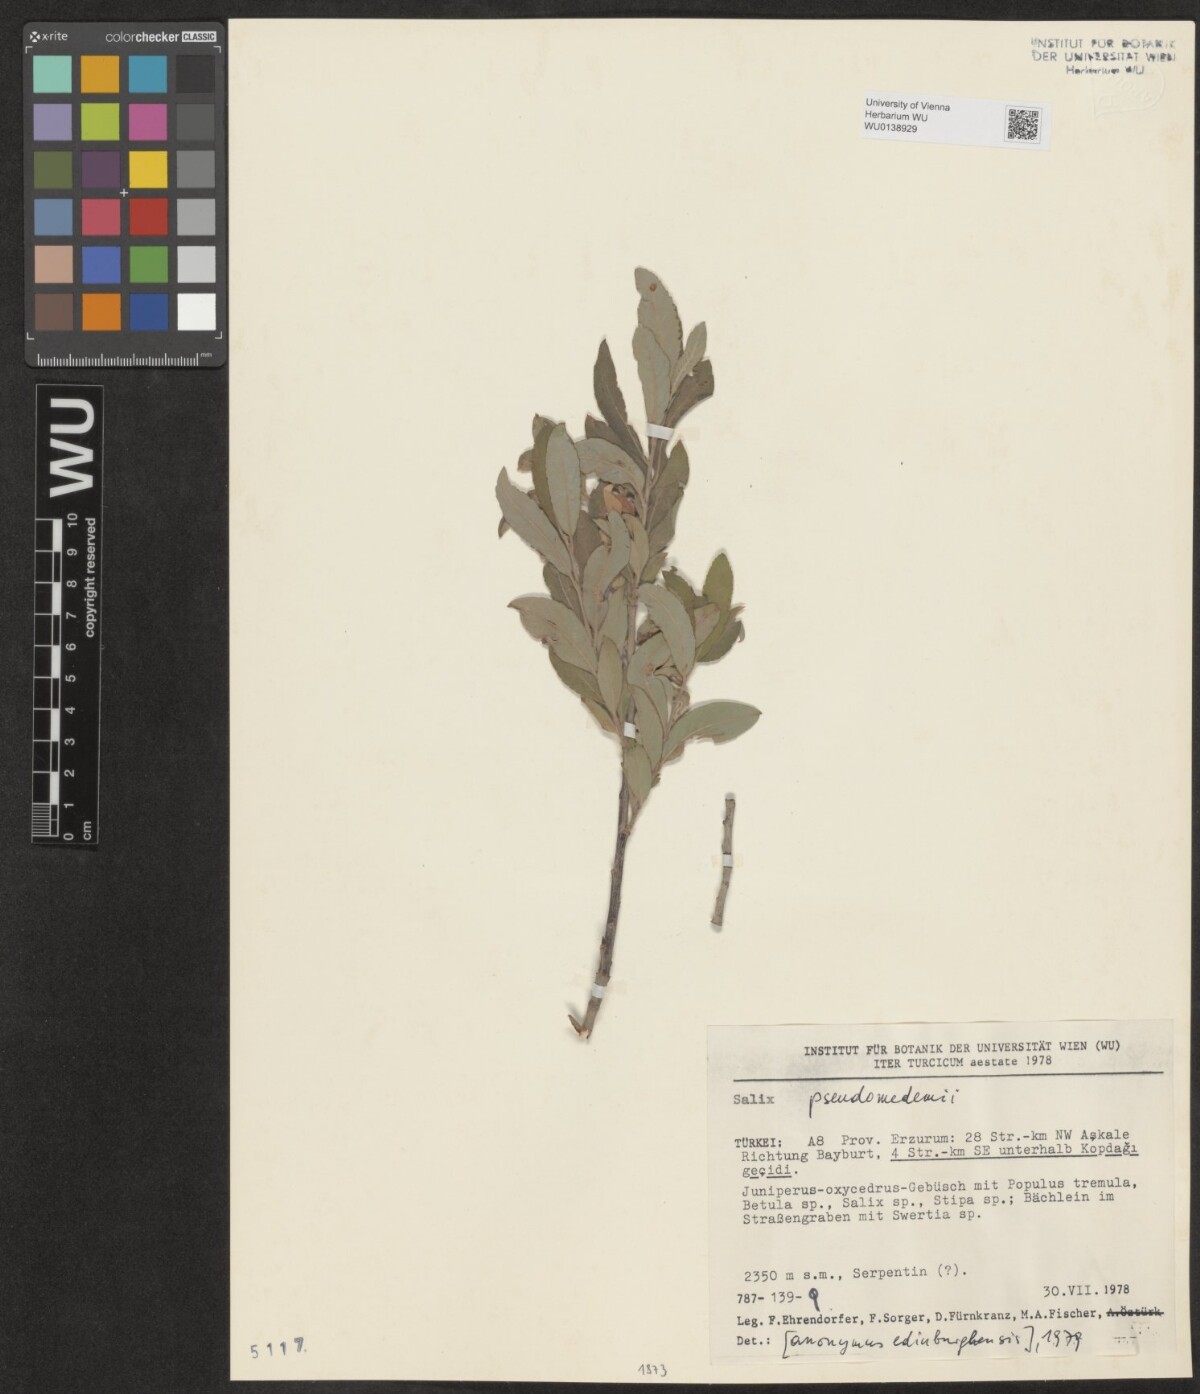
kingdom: Plantae
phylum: Tracheophyta
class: Magnoliopsida
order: Malpighiales
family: Salicaceae
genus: Salix
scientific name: Salix pseudomedemii
